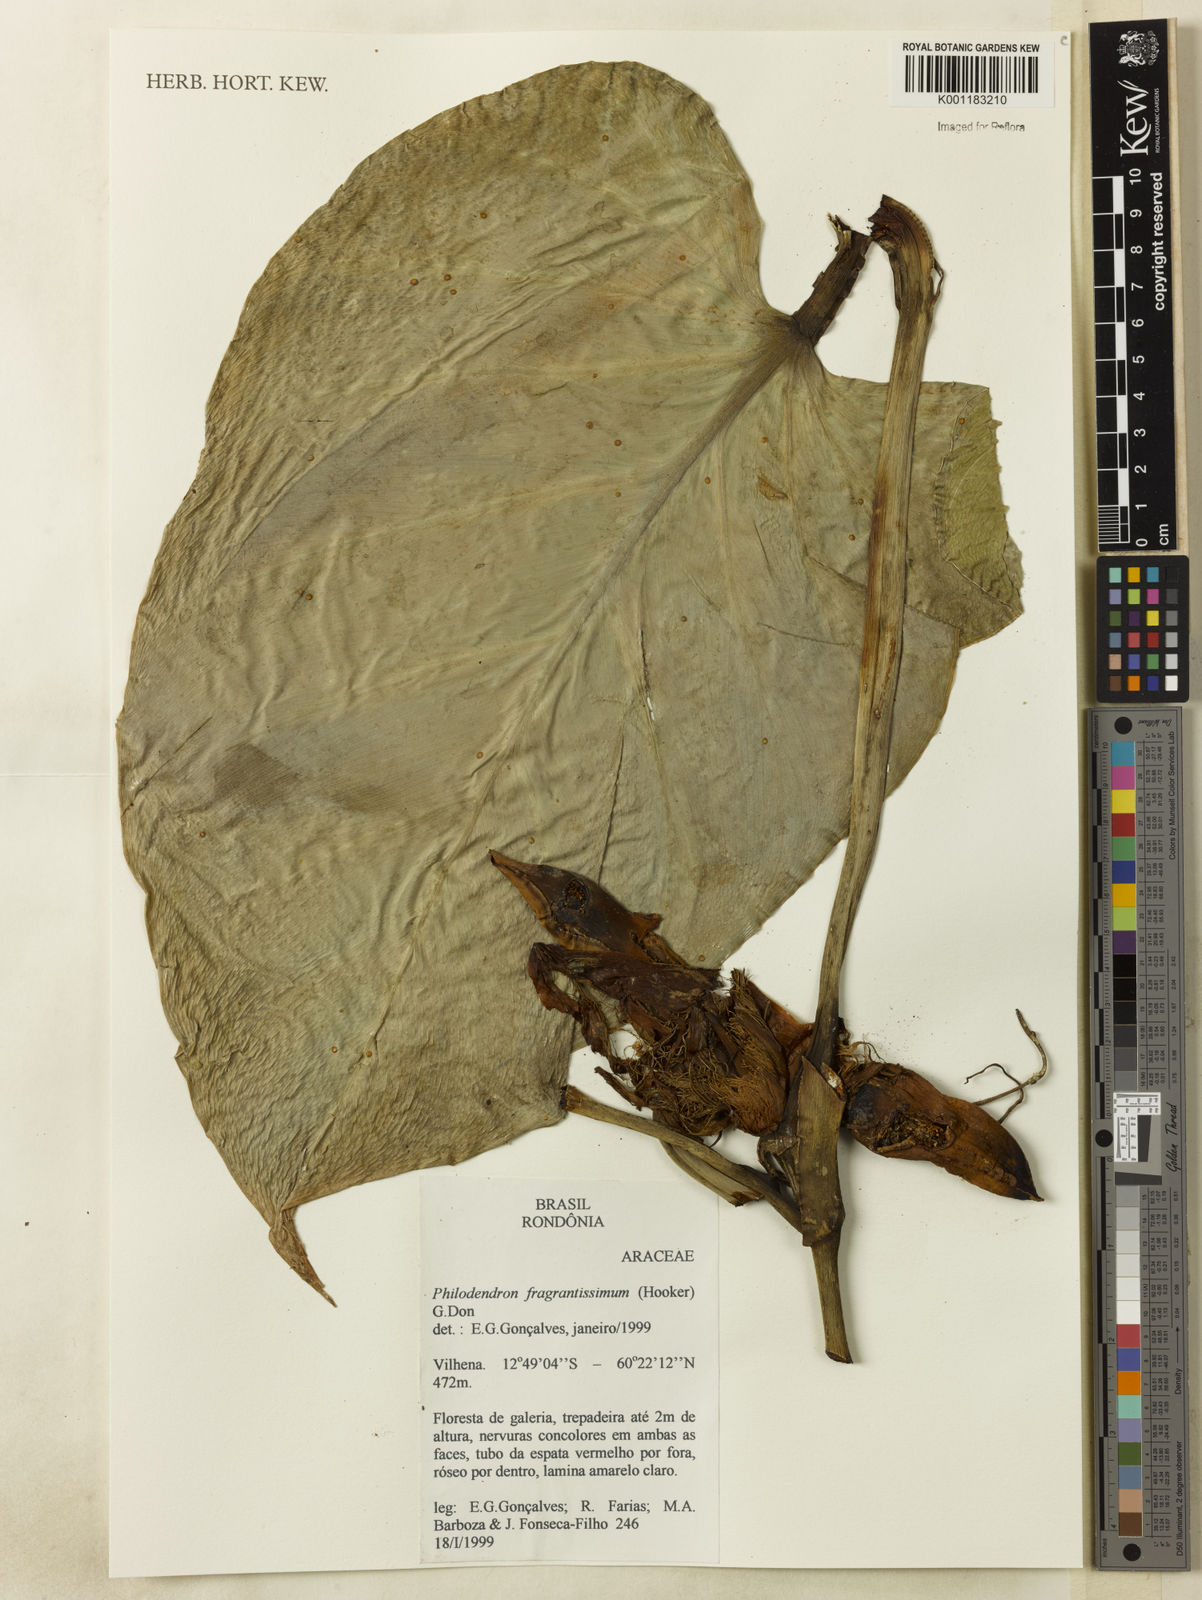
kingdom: Plantae
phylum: Tracheophyta
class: Liliopsida
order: Alismatales
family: Araceae
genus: Philodendron
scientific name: Philodendron fragrantissimum
